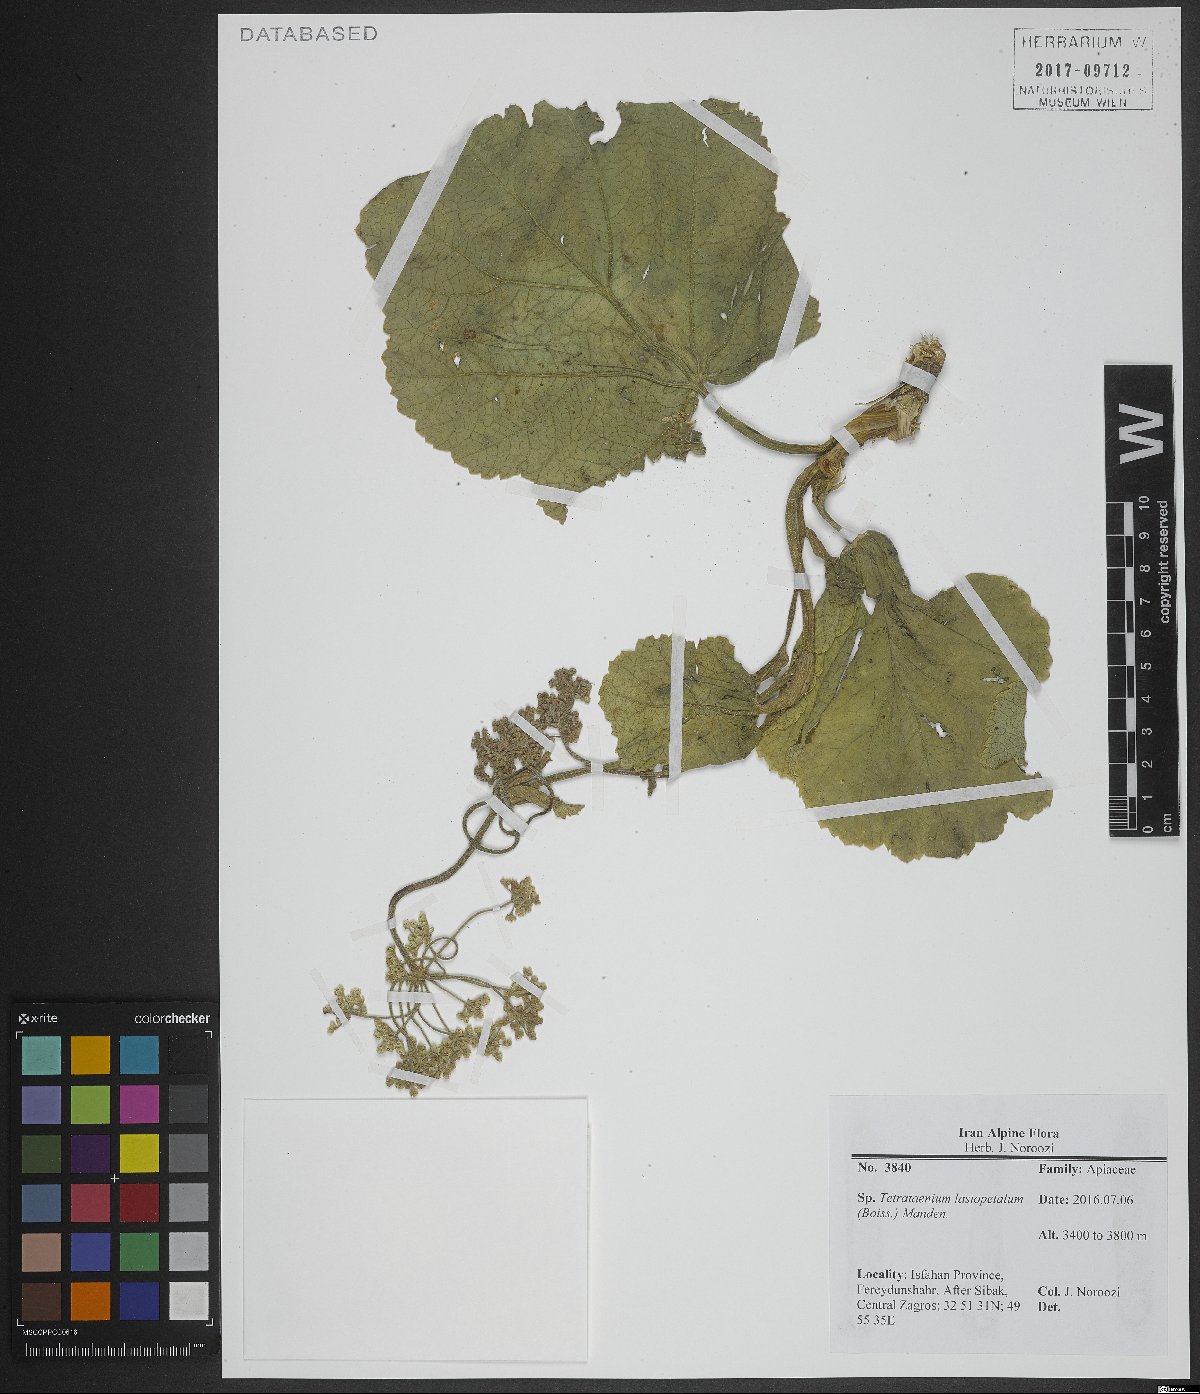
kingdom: Plantae
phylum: Tracheophyta
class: Magnoliopsida
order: Apiales
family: Apiaceae
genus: Tetrataenium
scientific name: Tetrataenium lasiopetalum
